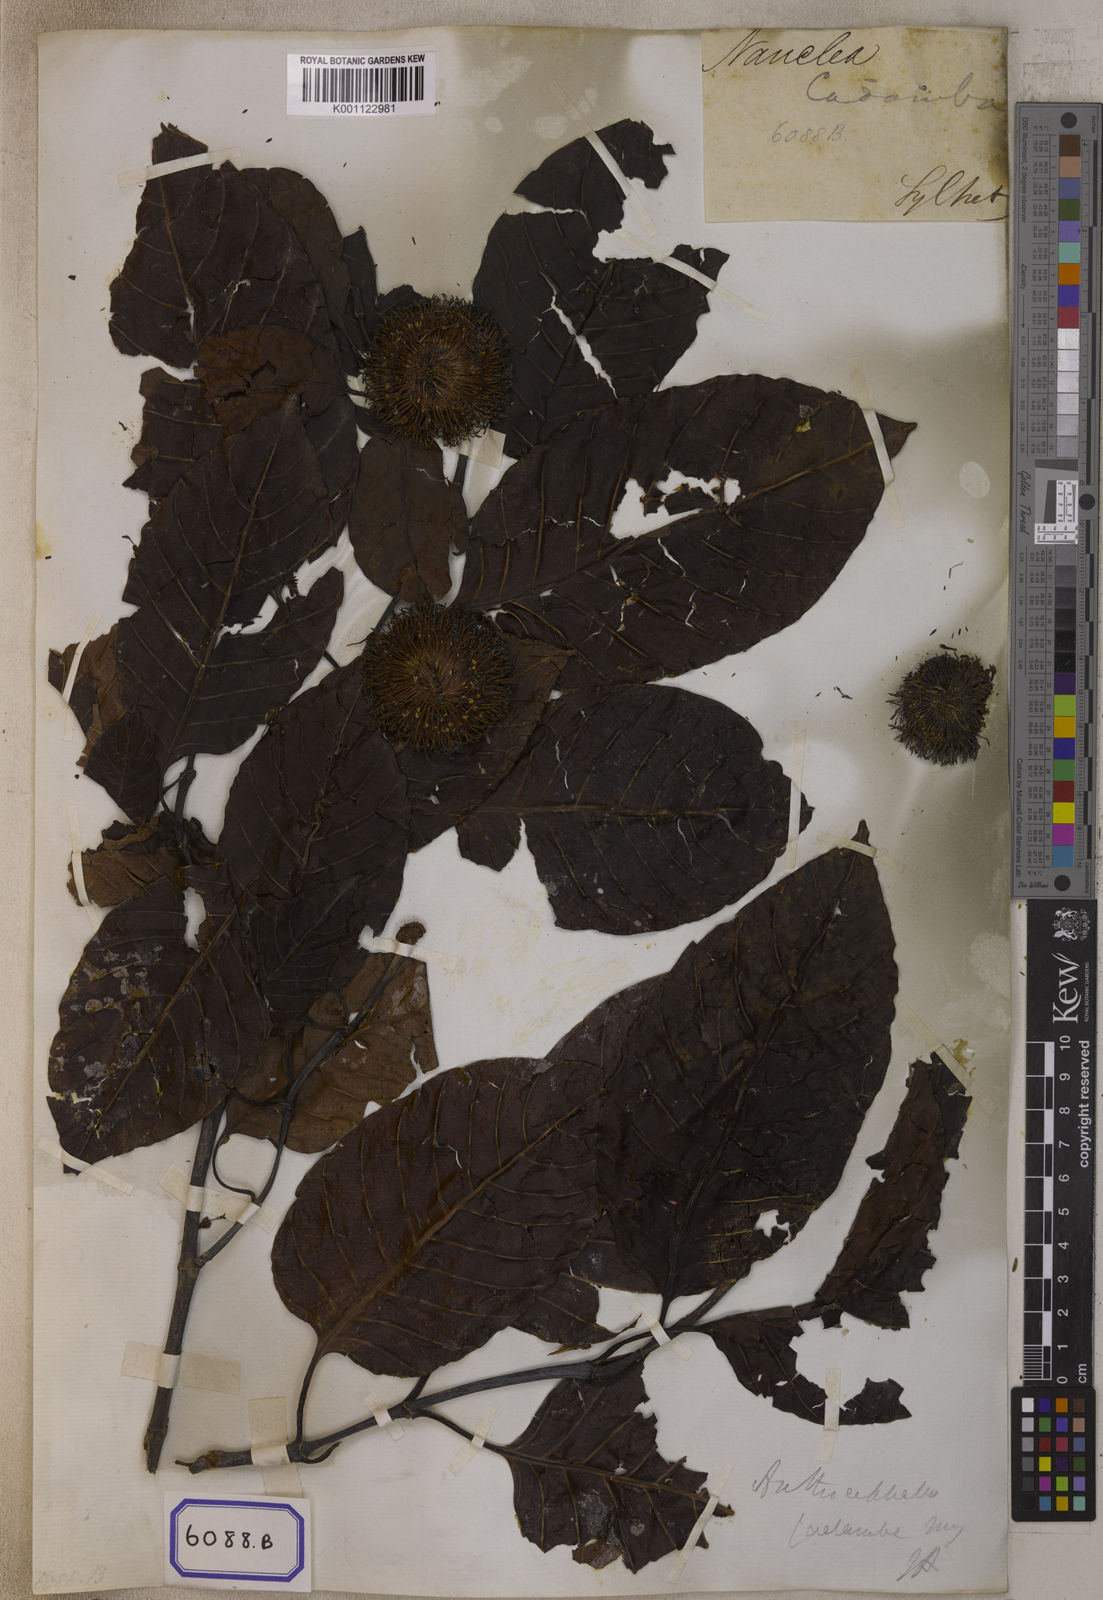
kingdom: Plantae
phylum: Tracheophyta
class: Magnoliopsida
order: Gentianales
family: Rubiaceae
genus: Neolamarckia
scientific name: Neolamarckia cadamba
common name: Leichhardt-pine
